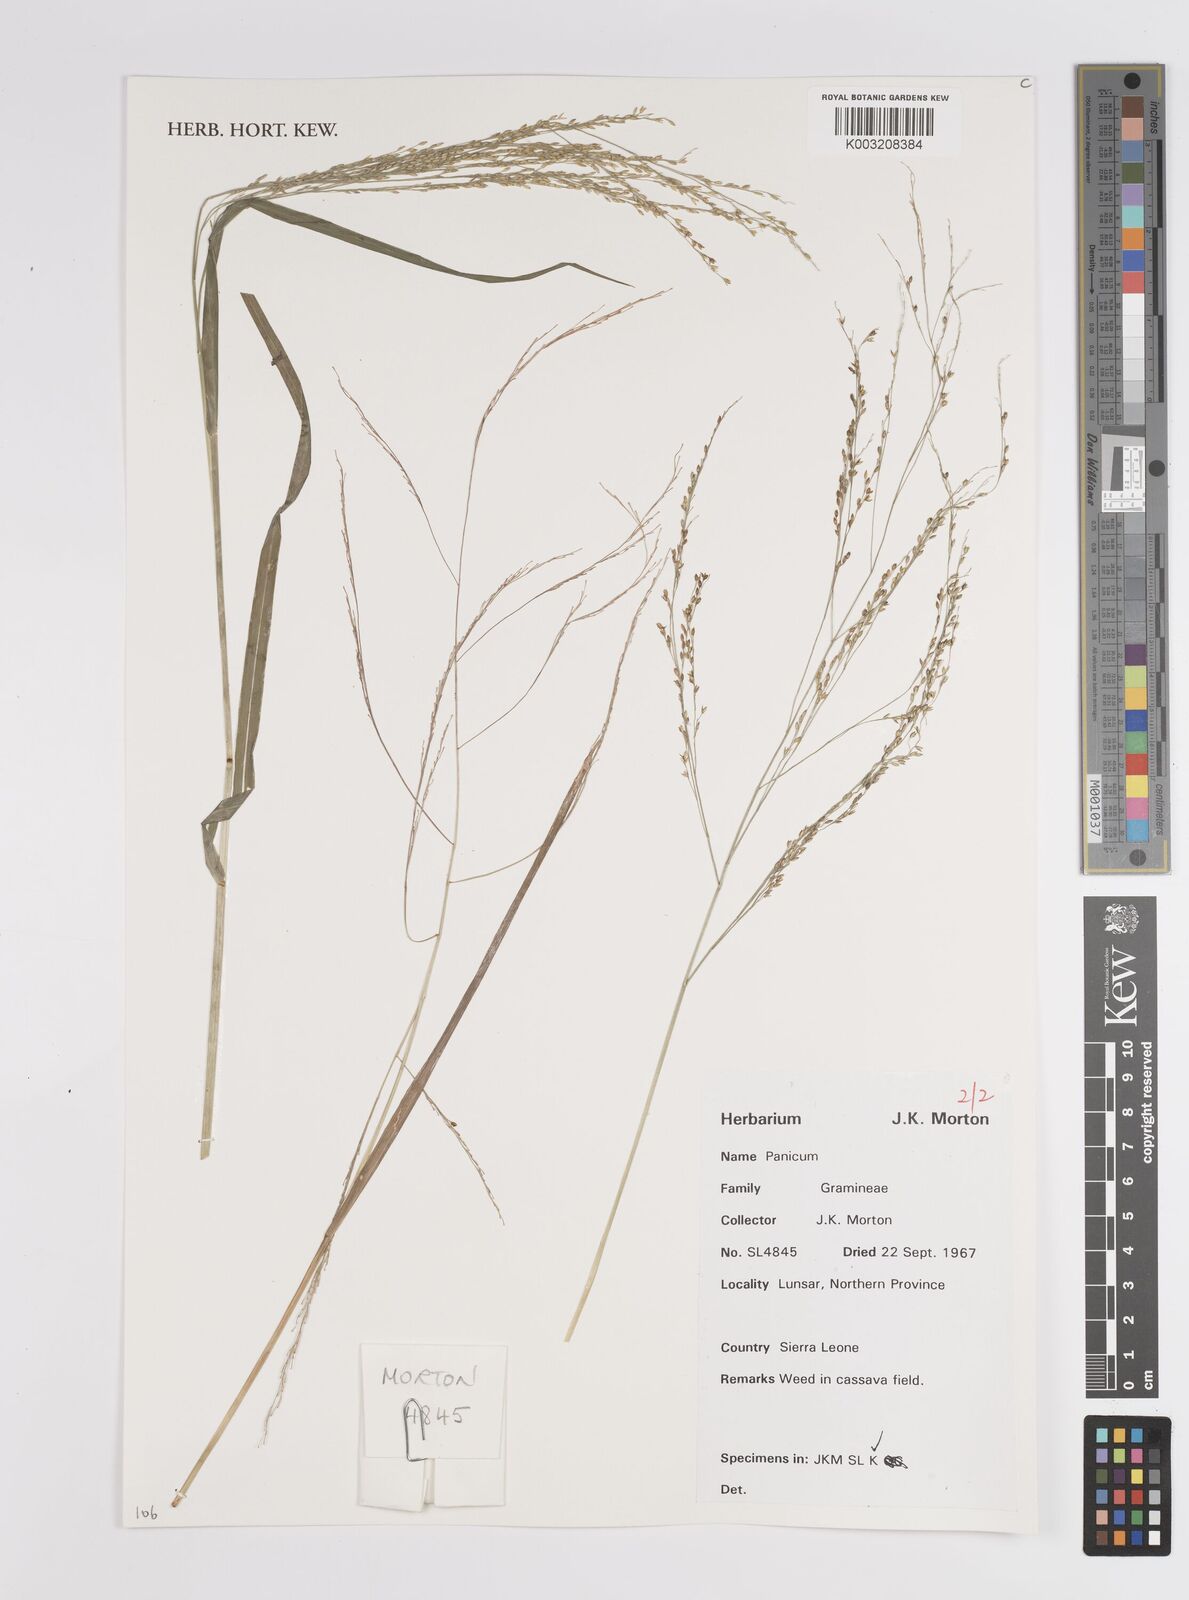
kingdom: Plantae
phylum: Tracheophyta
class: Liliopsida
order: Poales
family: Poaceae
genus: Panicum
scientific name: Panicum
